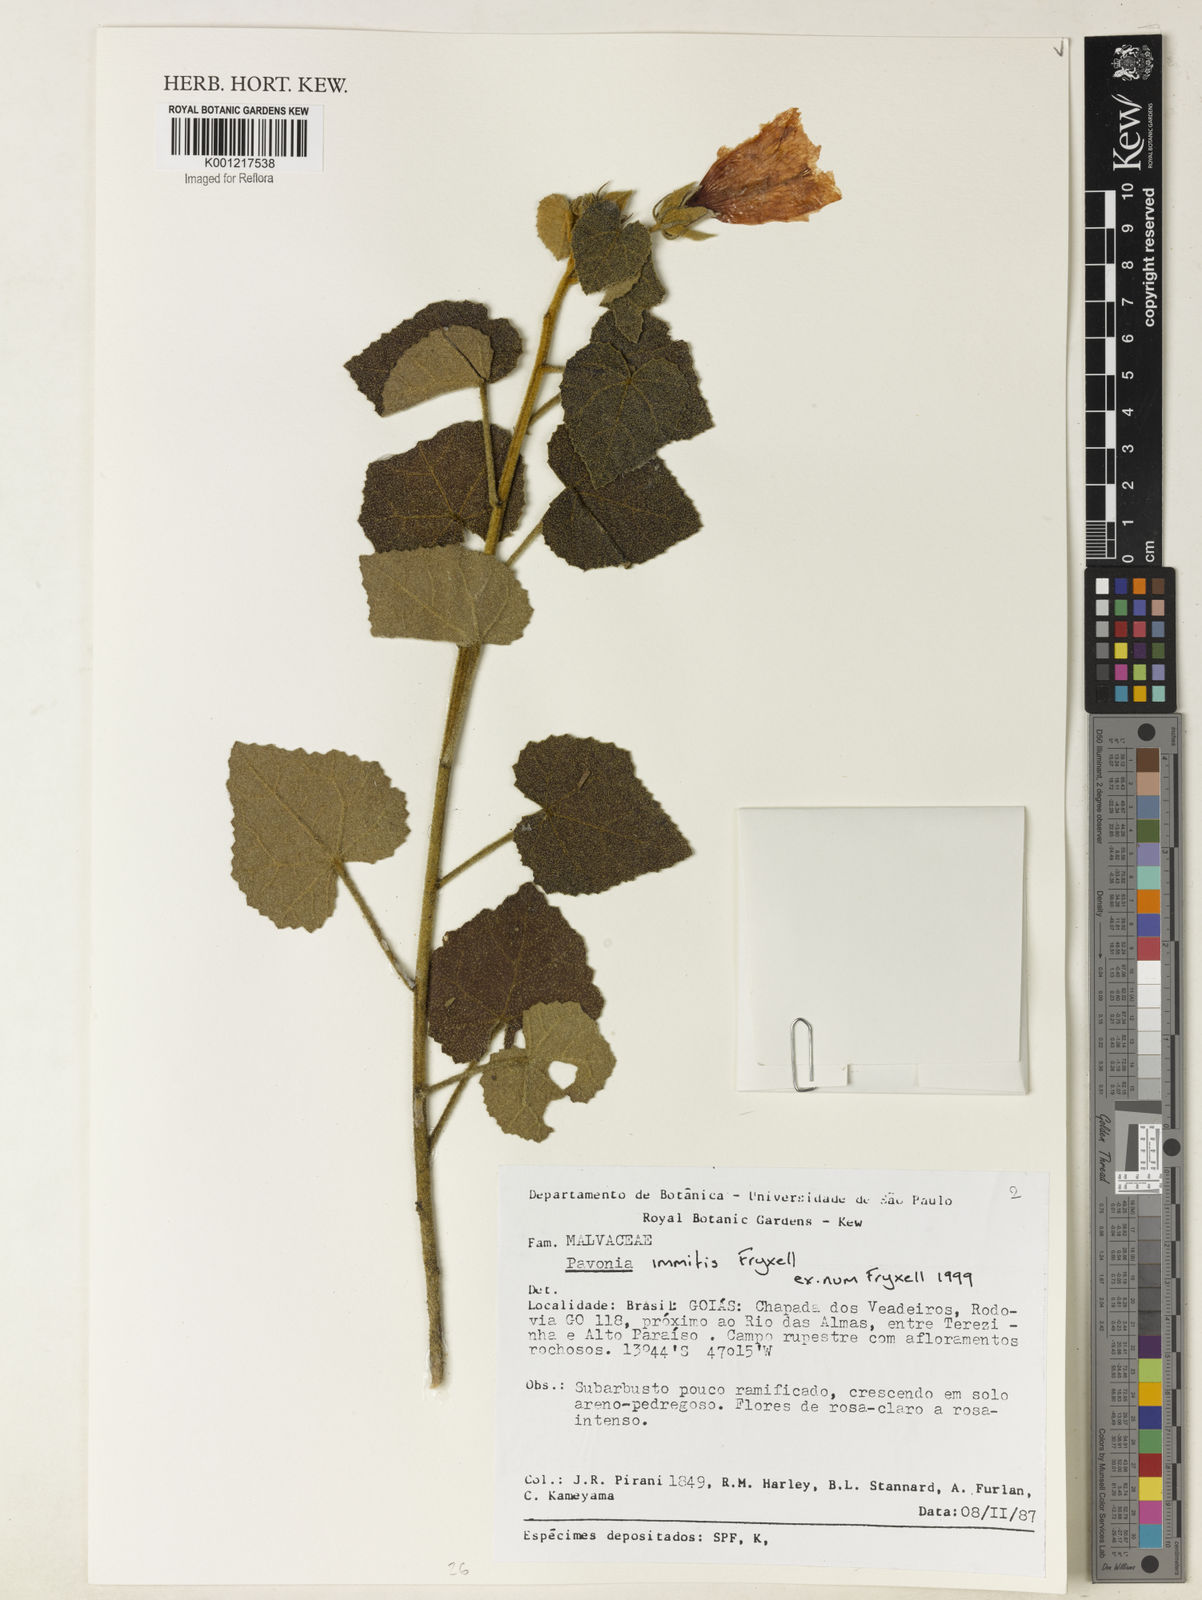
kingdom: Plantae
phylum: Tracheophyta
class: Magnoliopsida
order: Malvales
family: Malvaceae
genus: Pavonia
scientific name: Pavonia immitis
